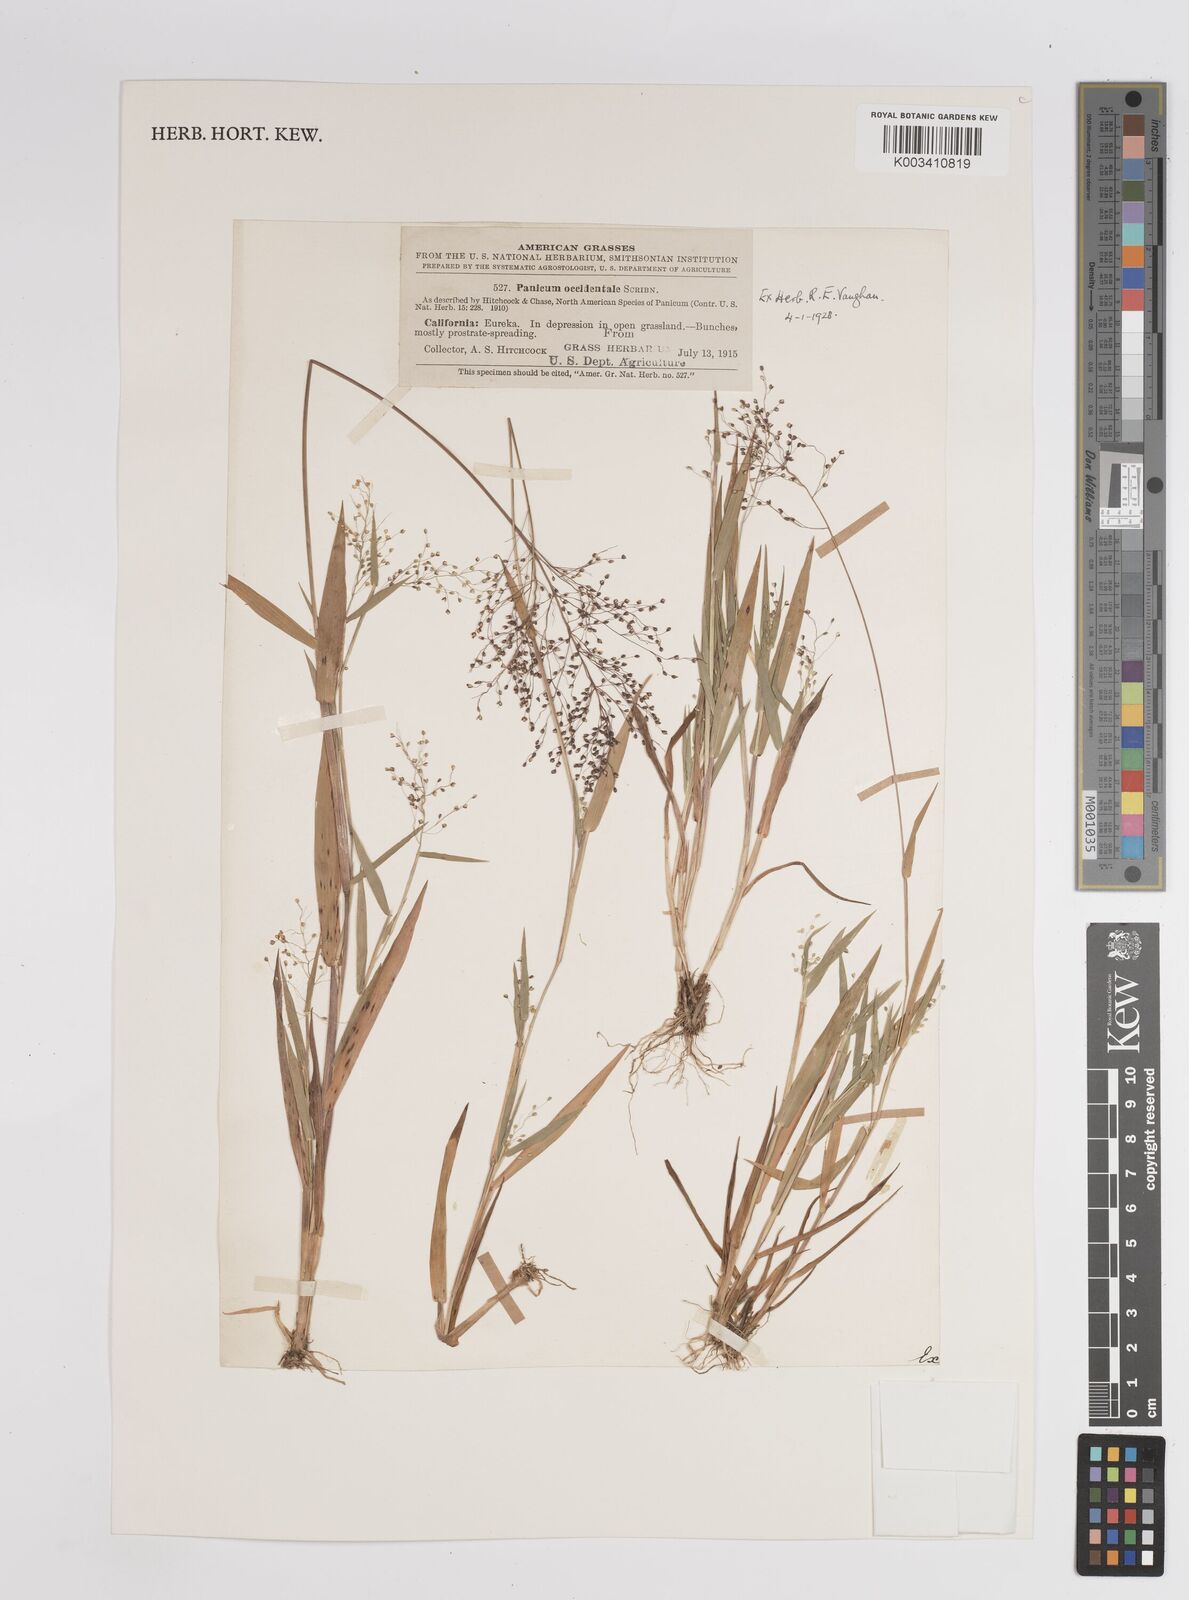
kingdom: Plantae
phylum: Tracheophyta
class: Liliopsida
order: Poales
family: Poaceae
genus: Dichanthelium
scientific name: Dichanthelium implicatum
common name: Slender-stemmed panicgrass
